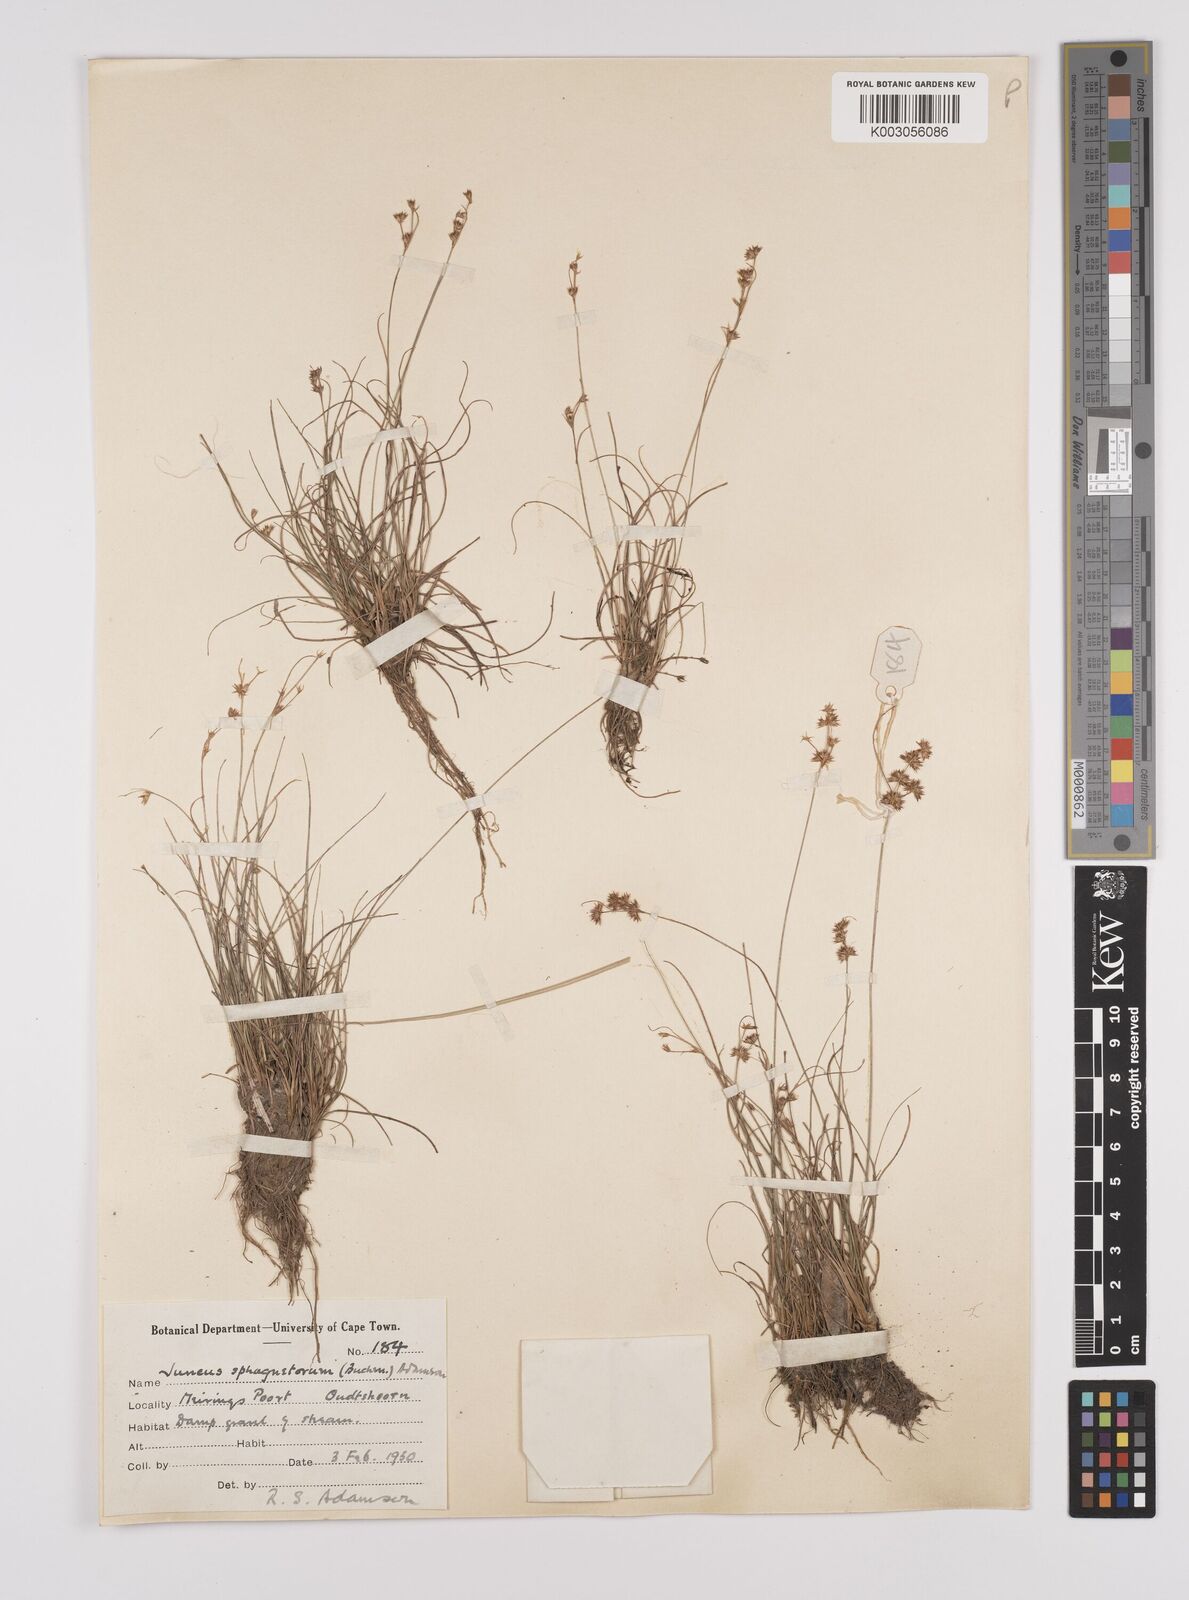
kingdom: Plantae
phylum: Tracheophyta
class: Liliopsida
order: Poales
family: Juncaceae
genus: Juncus
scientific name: Juncus capensis
